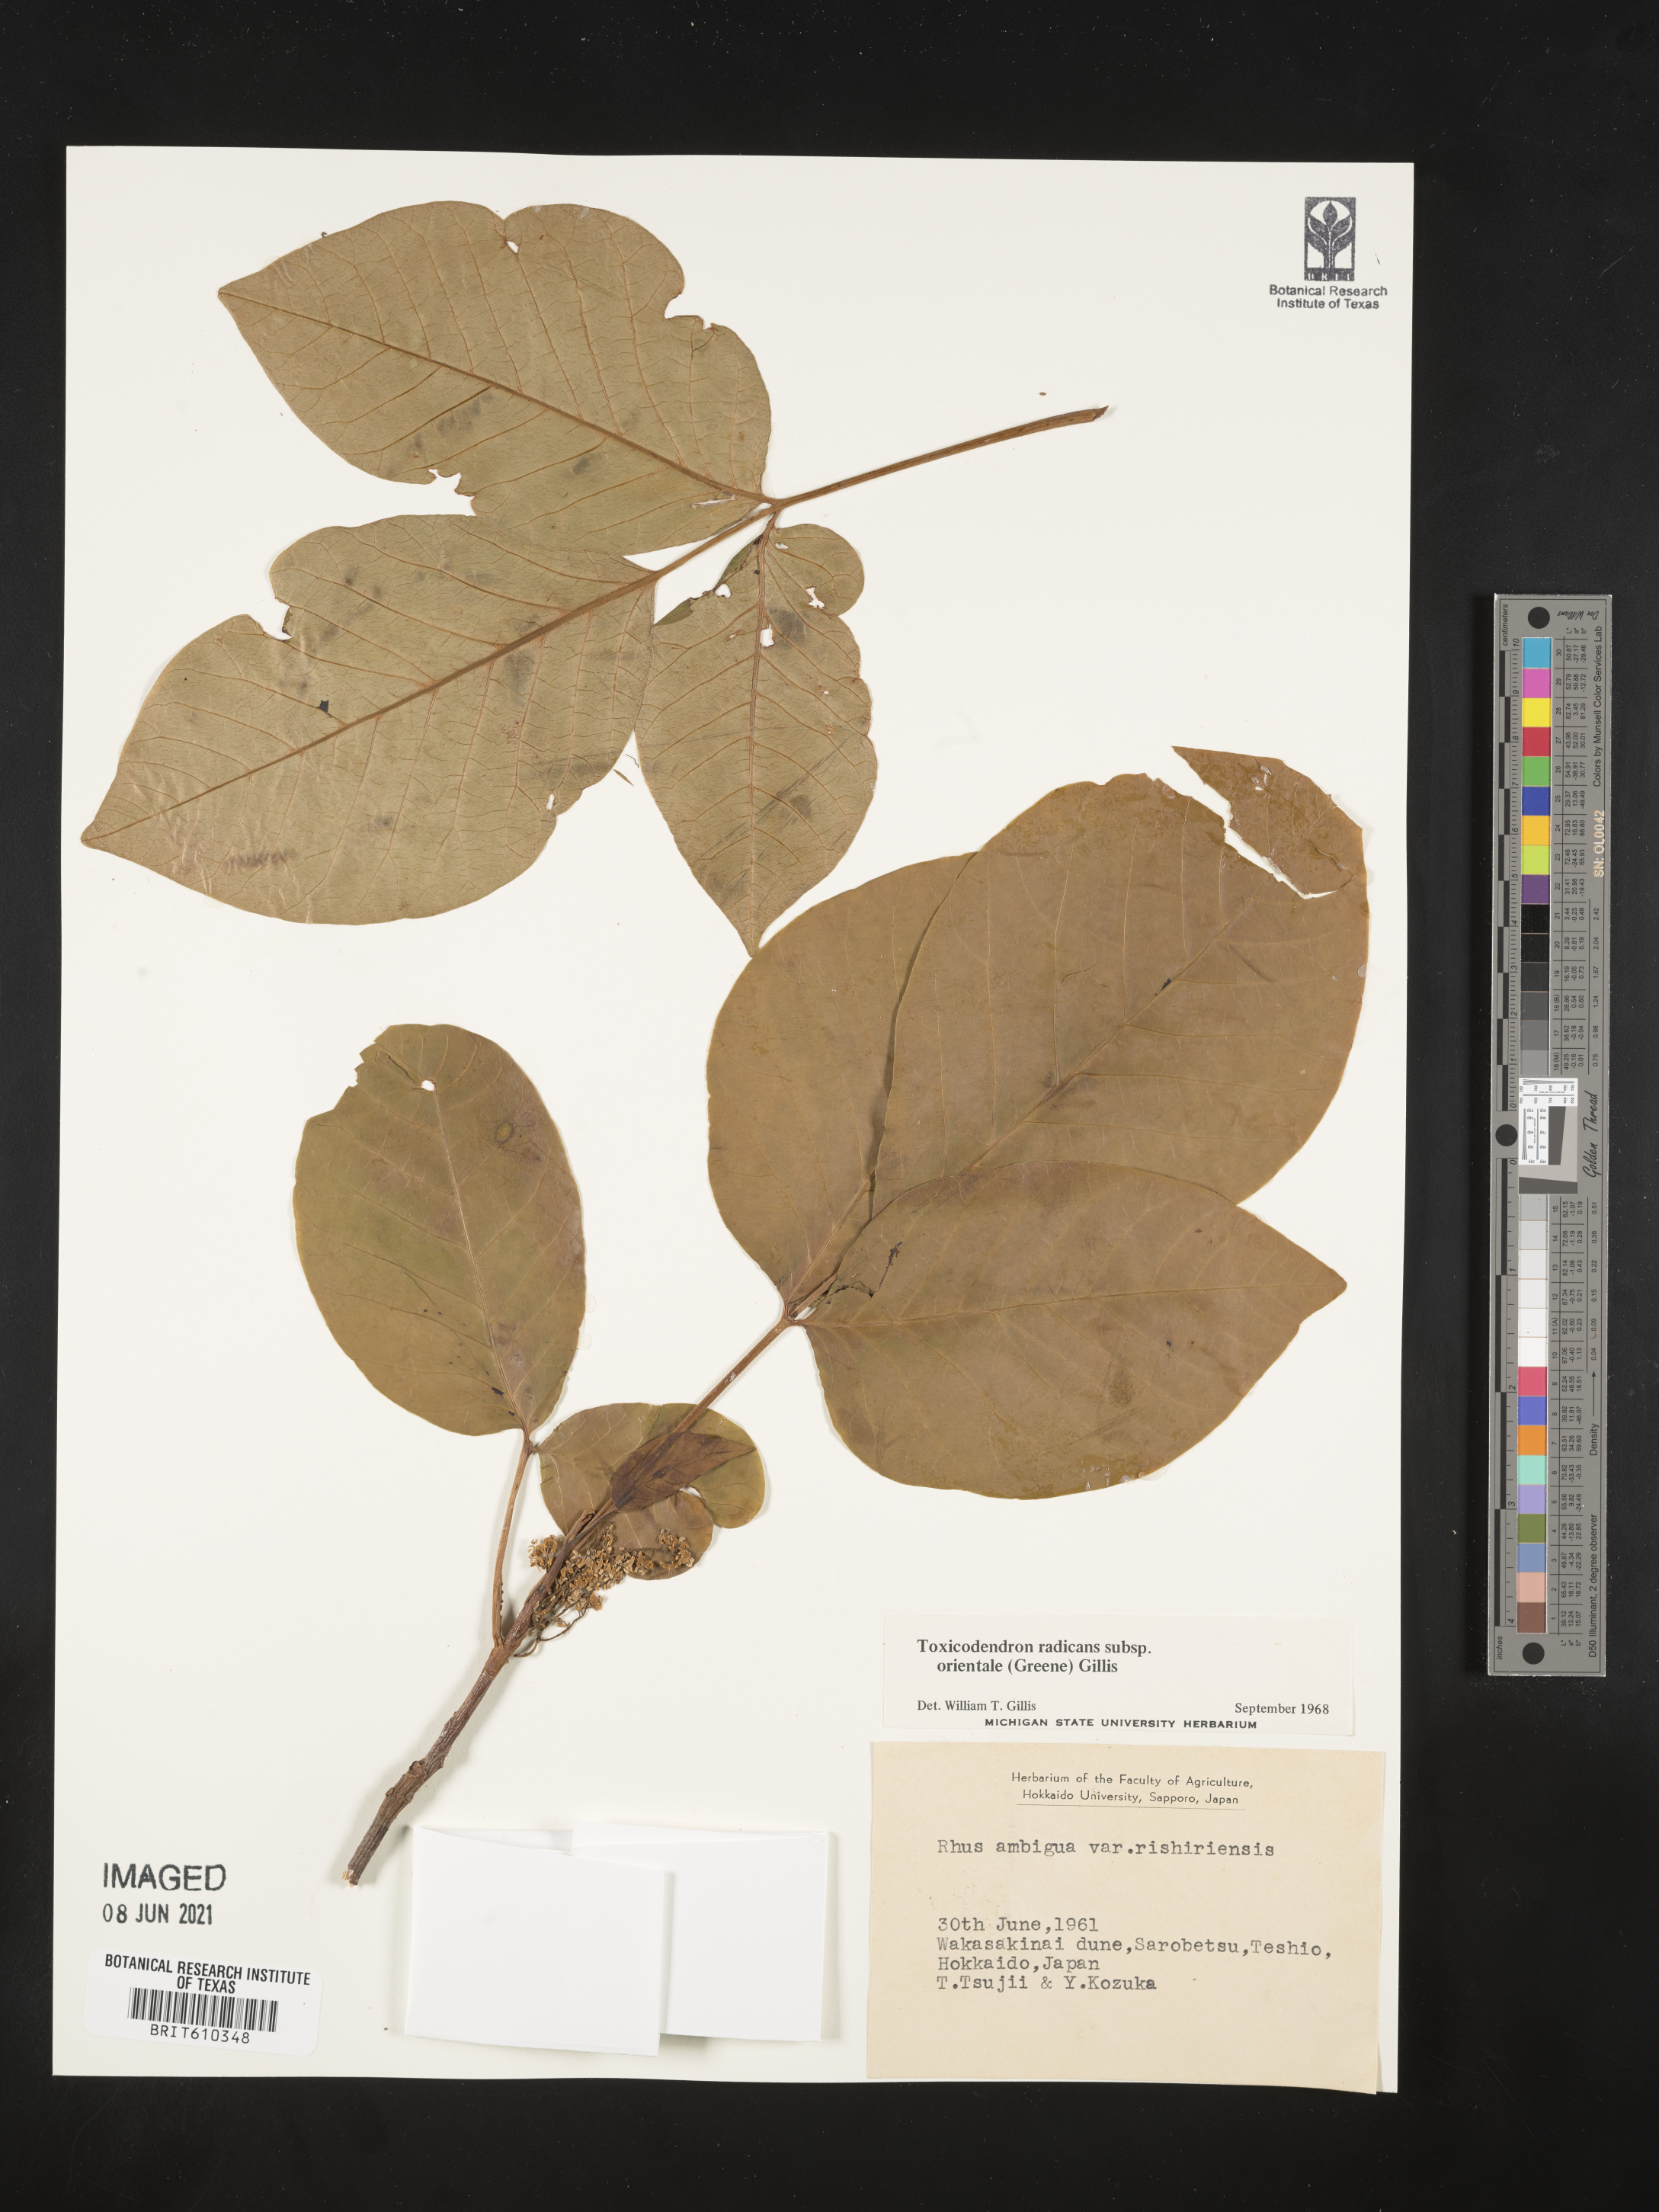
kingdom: Plantae
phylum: Tracheophyta
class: Magnoliopsida
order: Sapindales
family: Anacardiaceae
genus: Toxicodendron
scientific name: Toxicodendron orientale
